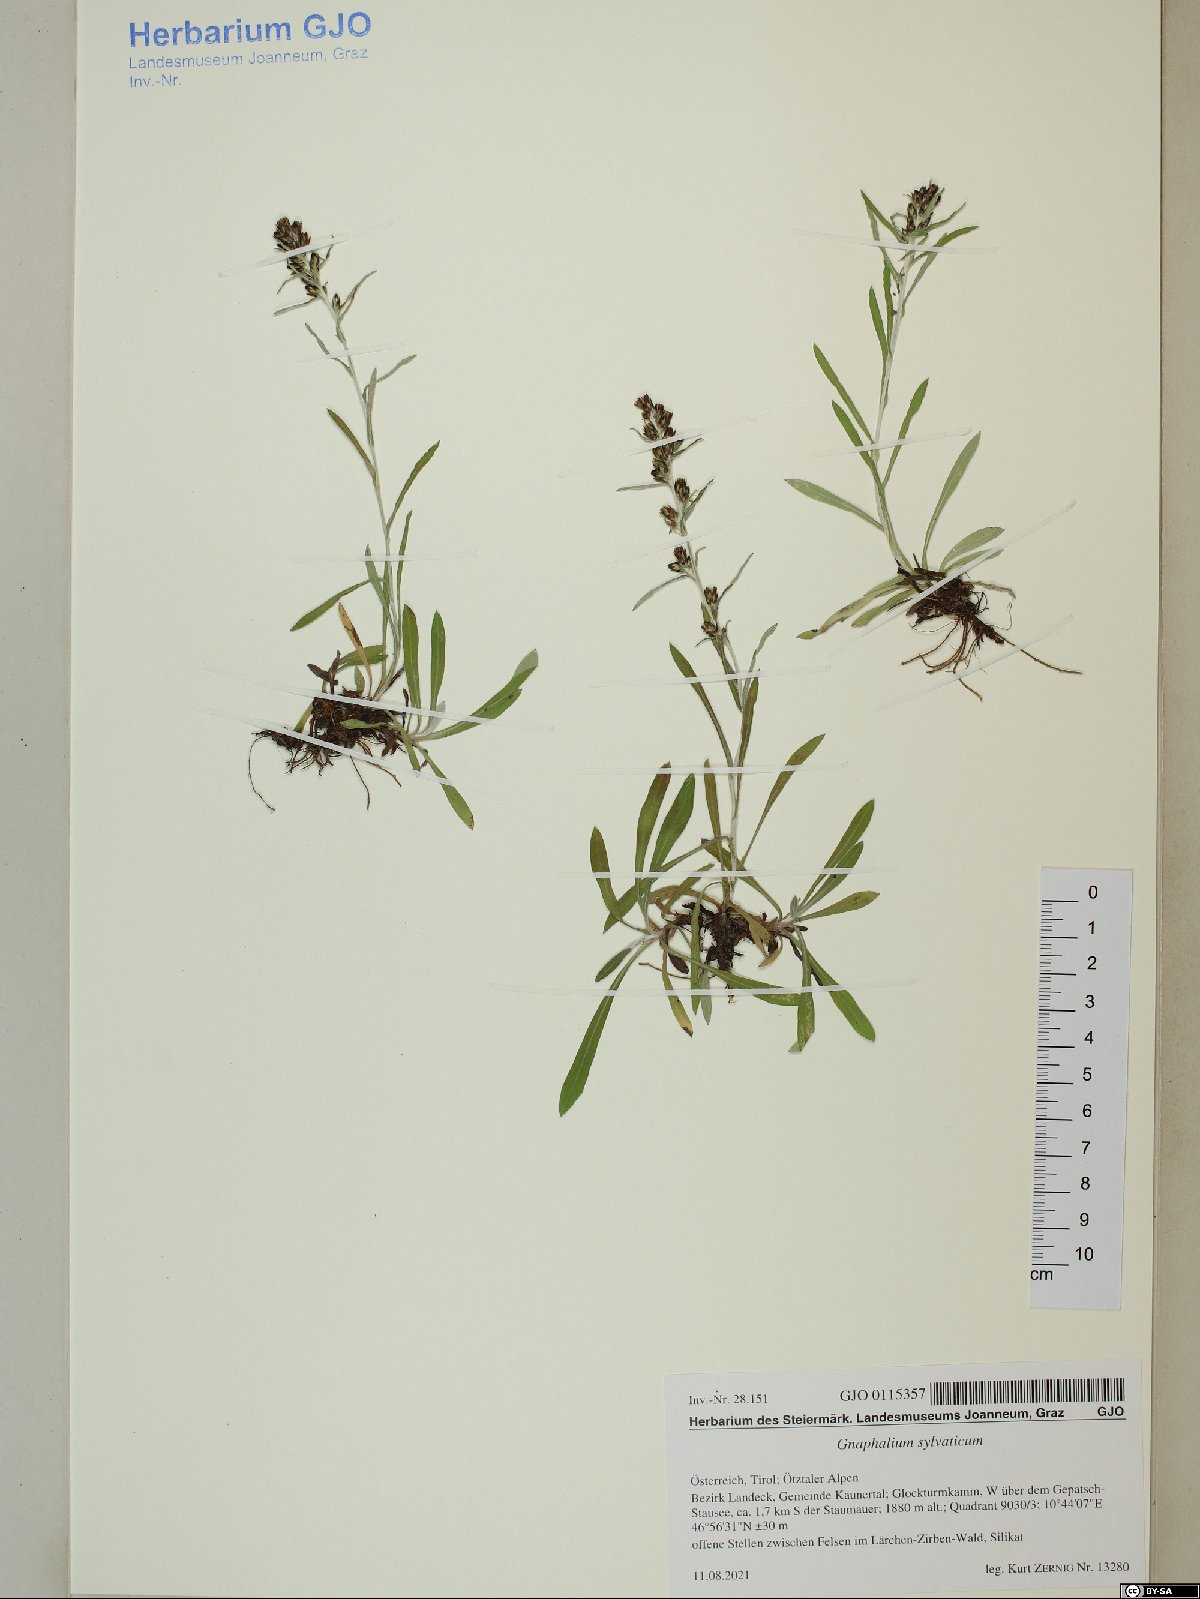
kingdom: Plantae
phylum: Tracheophyta
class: Magnoliopsida
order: Asterales
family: Asteraceae
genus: Omalotheca
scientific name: Omalotheca sylvatica
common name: Heath cudweed
